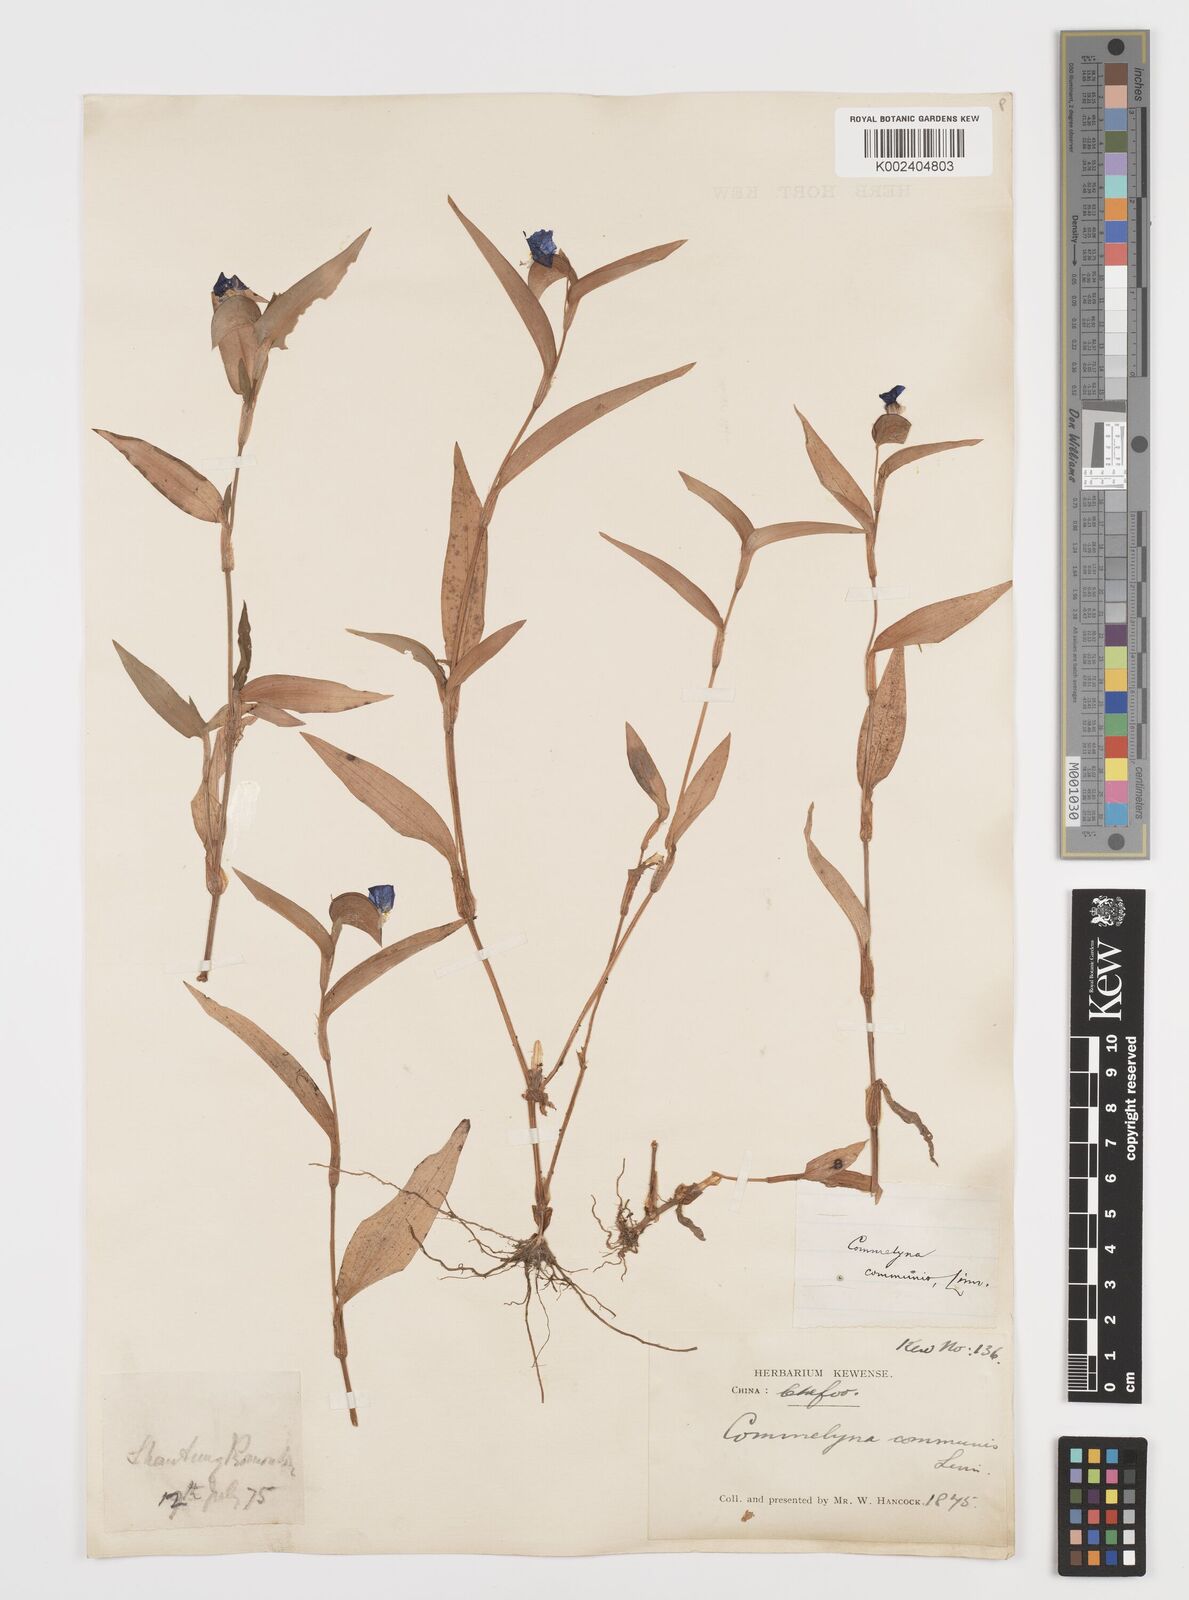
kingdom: Plantae
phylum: Tracheophyta
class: Liliopsida
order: Commelinales
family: Commelinaceae
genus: Commelina
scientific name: Commelina communis
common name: Asiatic dayflower
